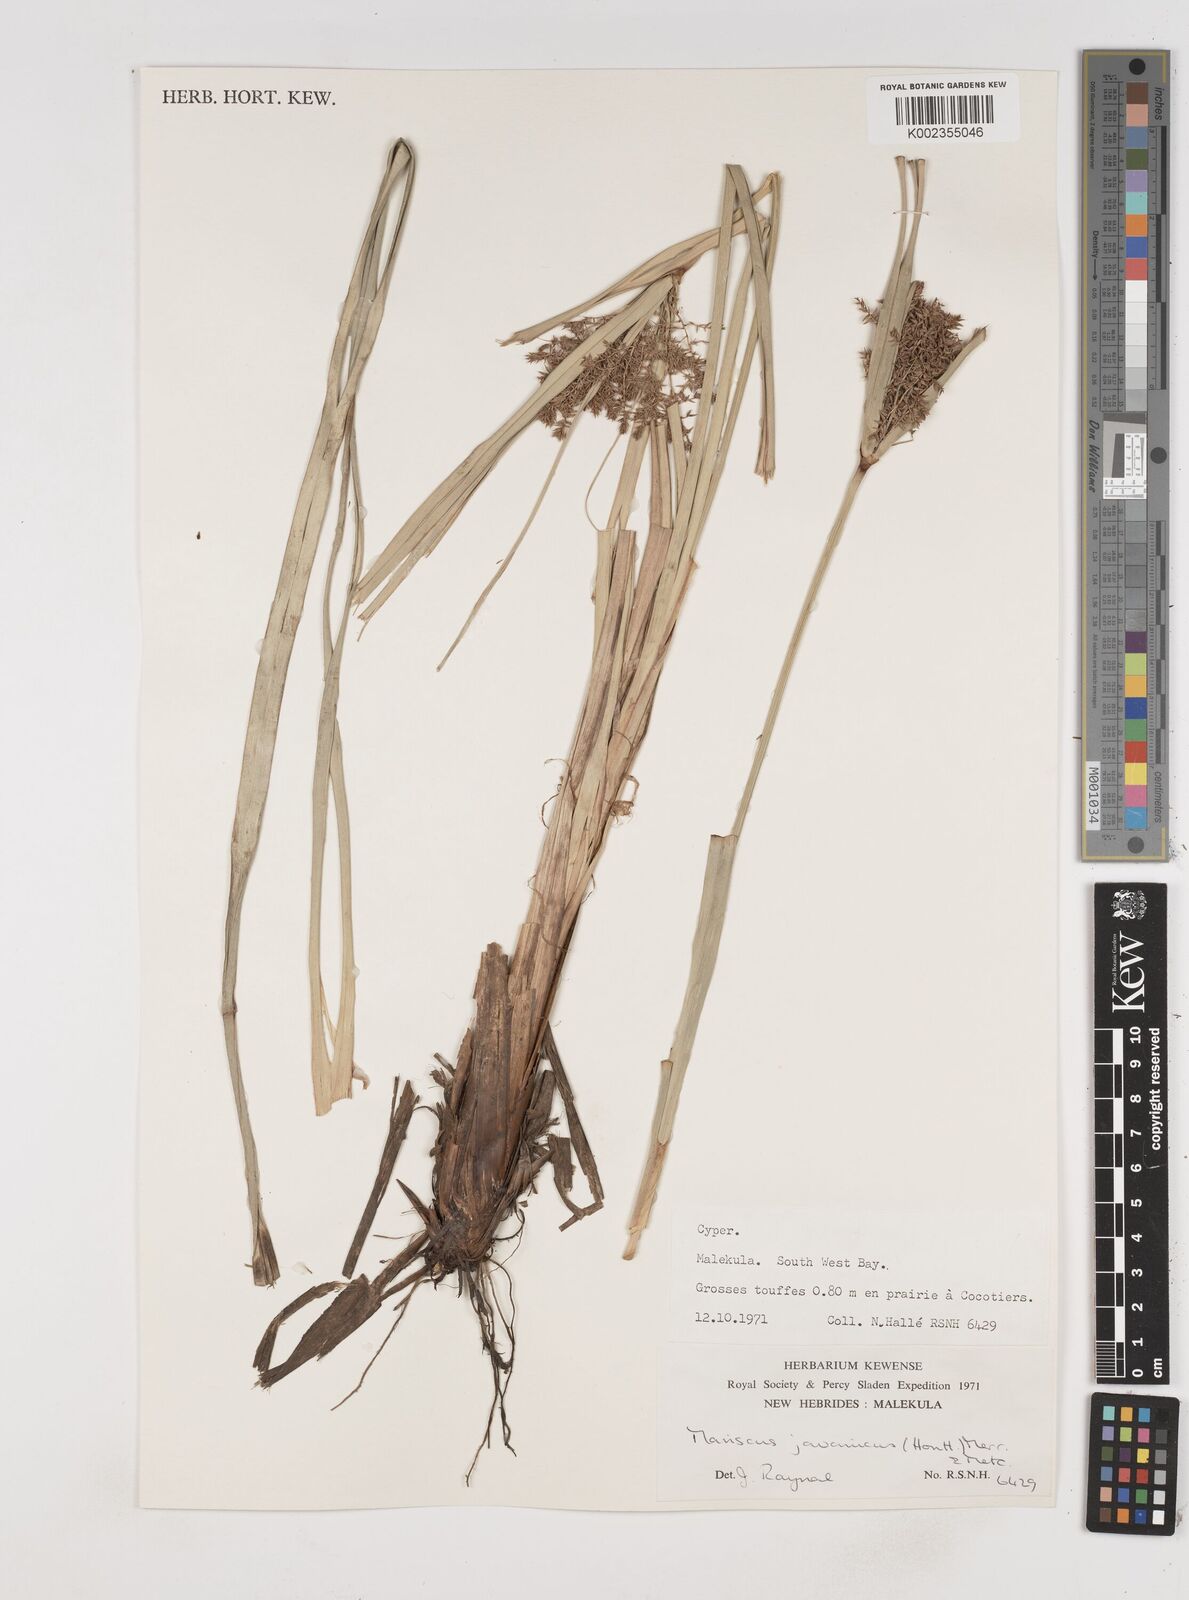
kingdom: Plantae
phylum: Tracheophyta
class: Liliopsida
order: Poales
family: Cyperaceae
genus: Cyperus
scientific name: Cyperus javanicus
